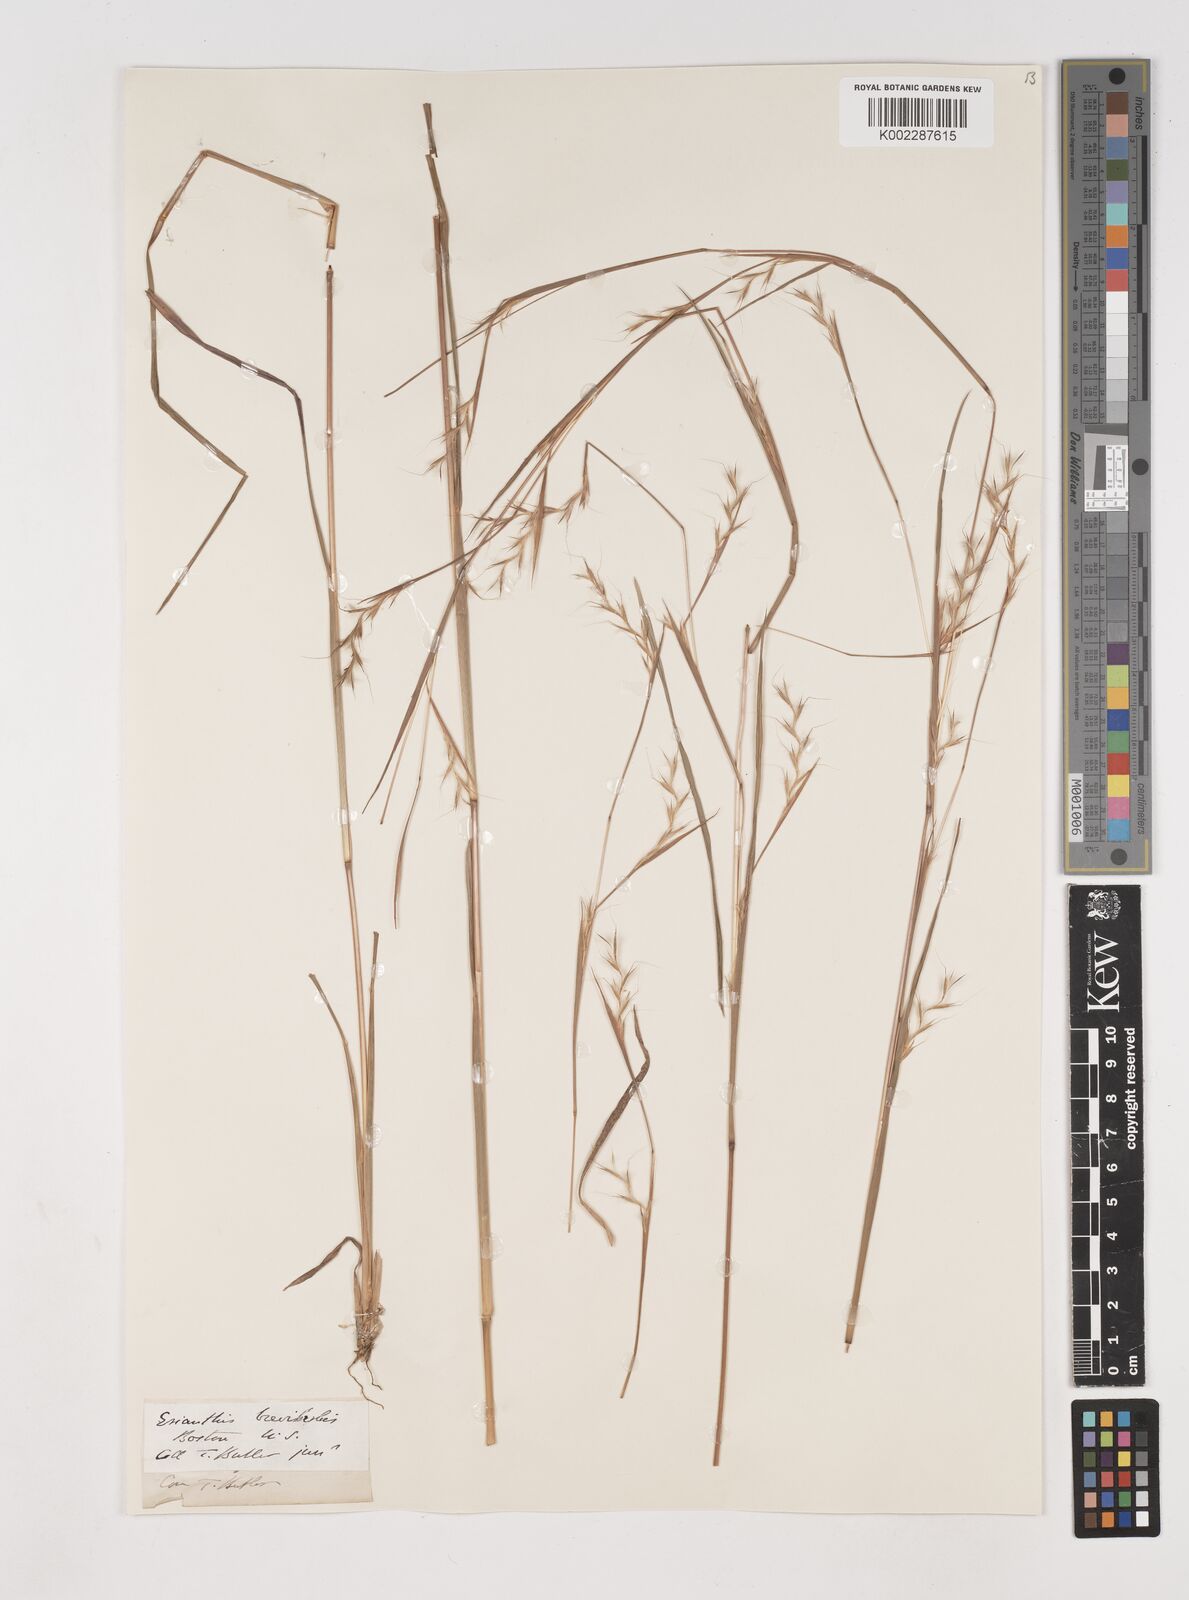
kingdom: Plantae
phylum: Tracheophyta
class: Liliopsida
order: Poales
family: Poaceae
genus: Schizachyrium
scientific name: Schizachyrium scoparium
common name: Little bluestem
